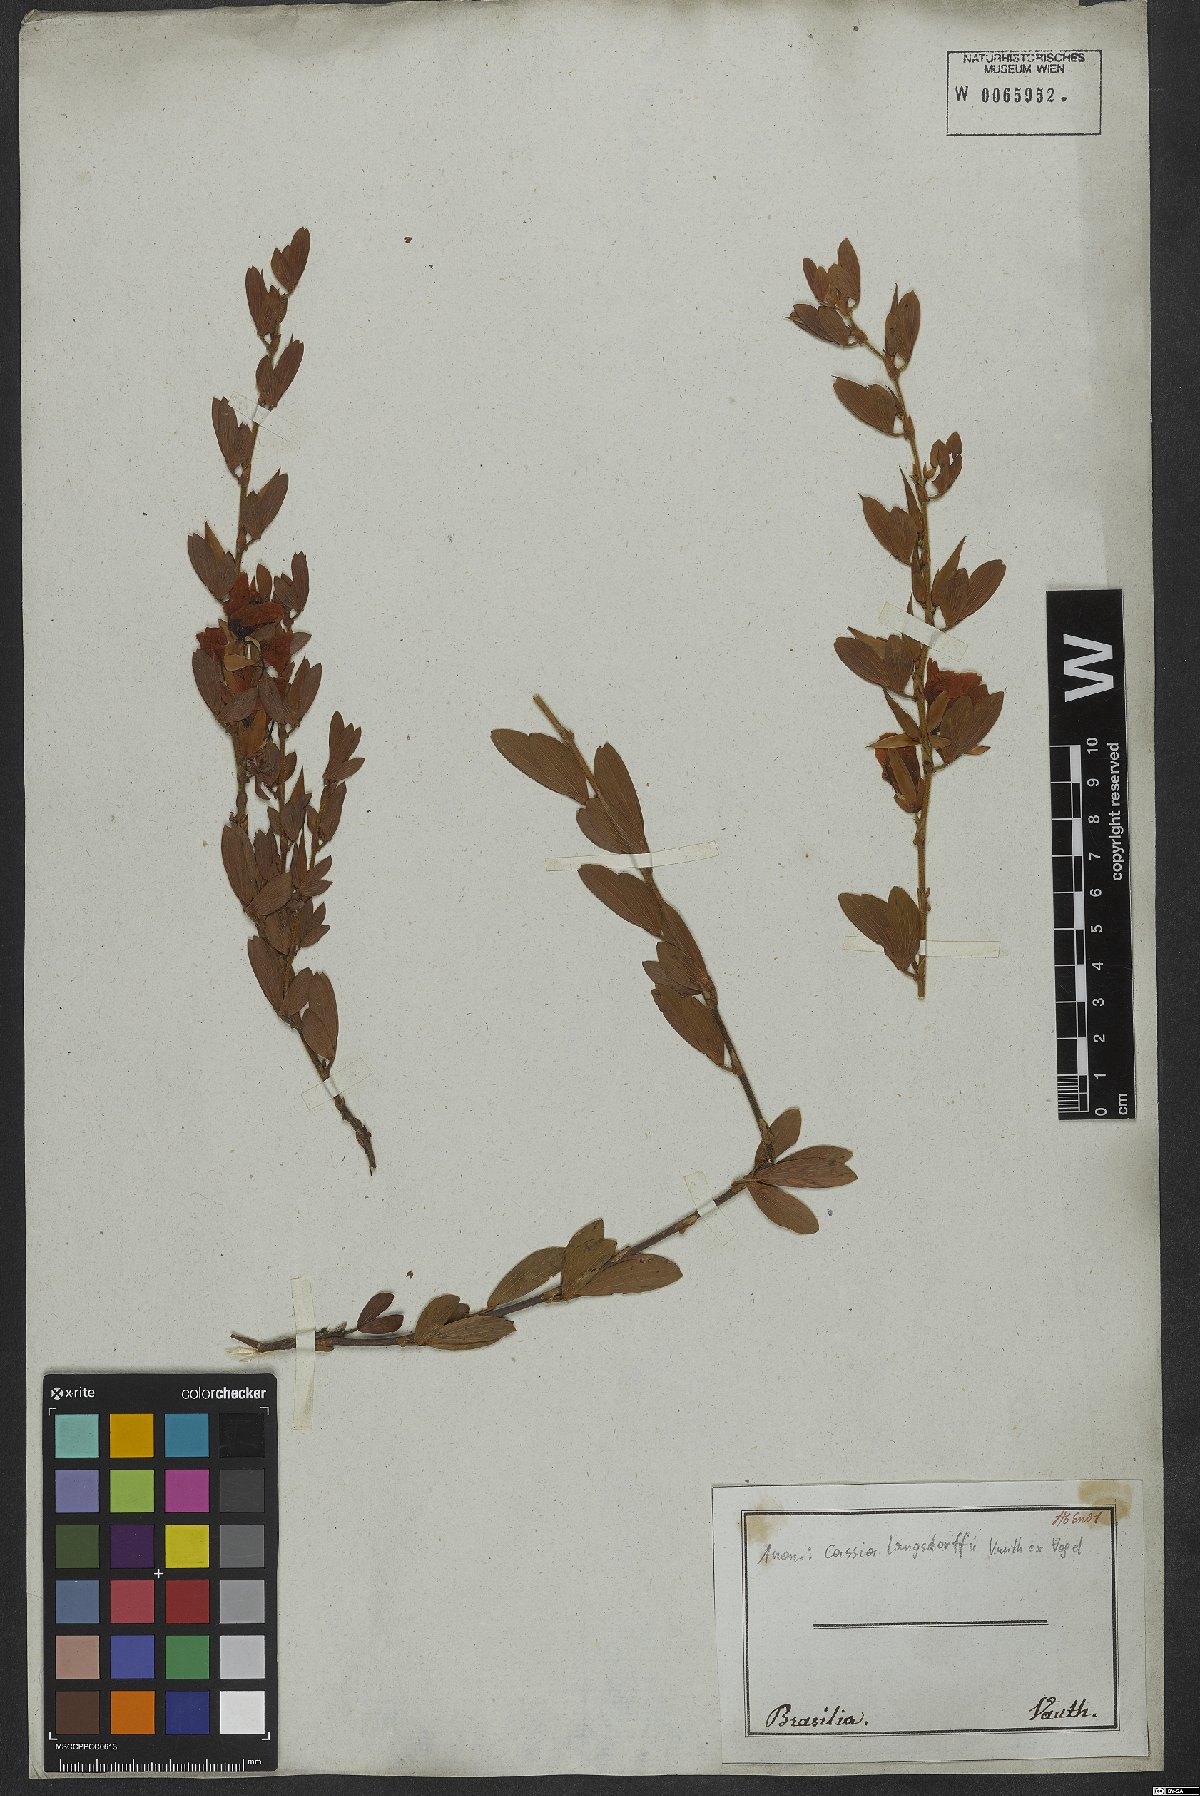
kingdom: Plantae
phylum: Tracheophyta
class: Magnoliopsida
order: Fabales
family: Fabaceae
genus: Chamaecrista
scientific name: Chamaecrista langsdorffii
